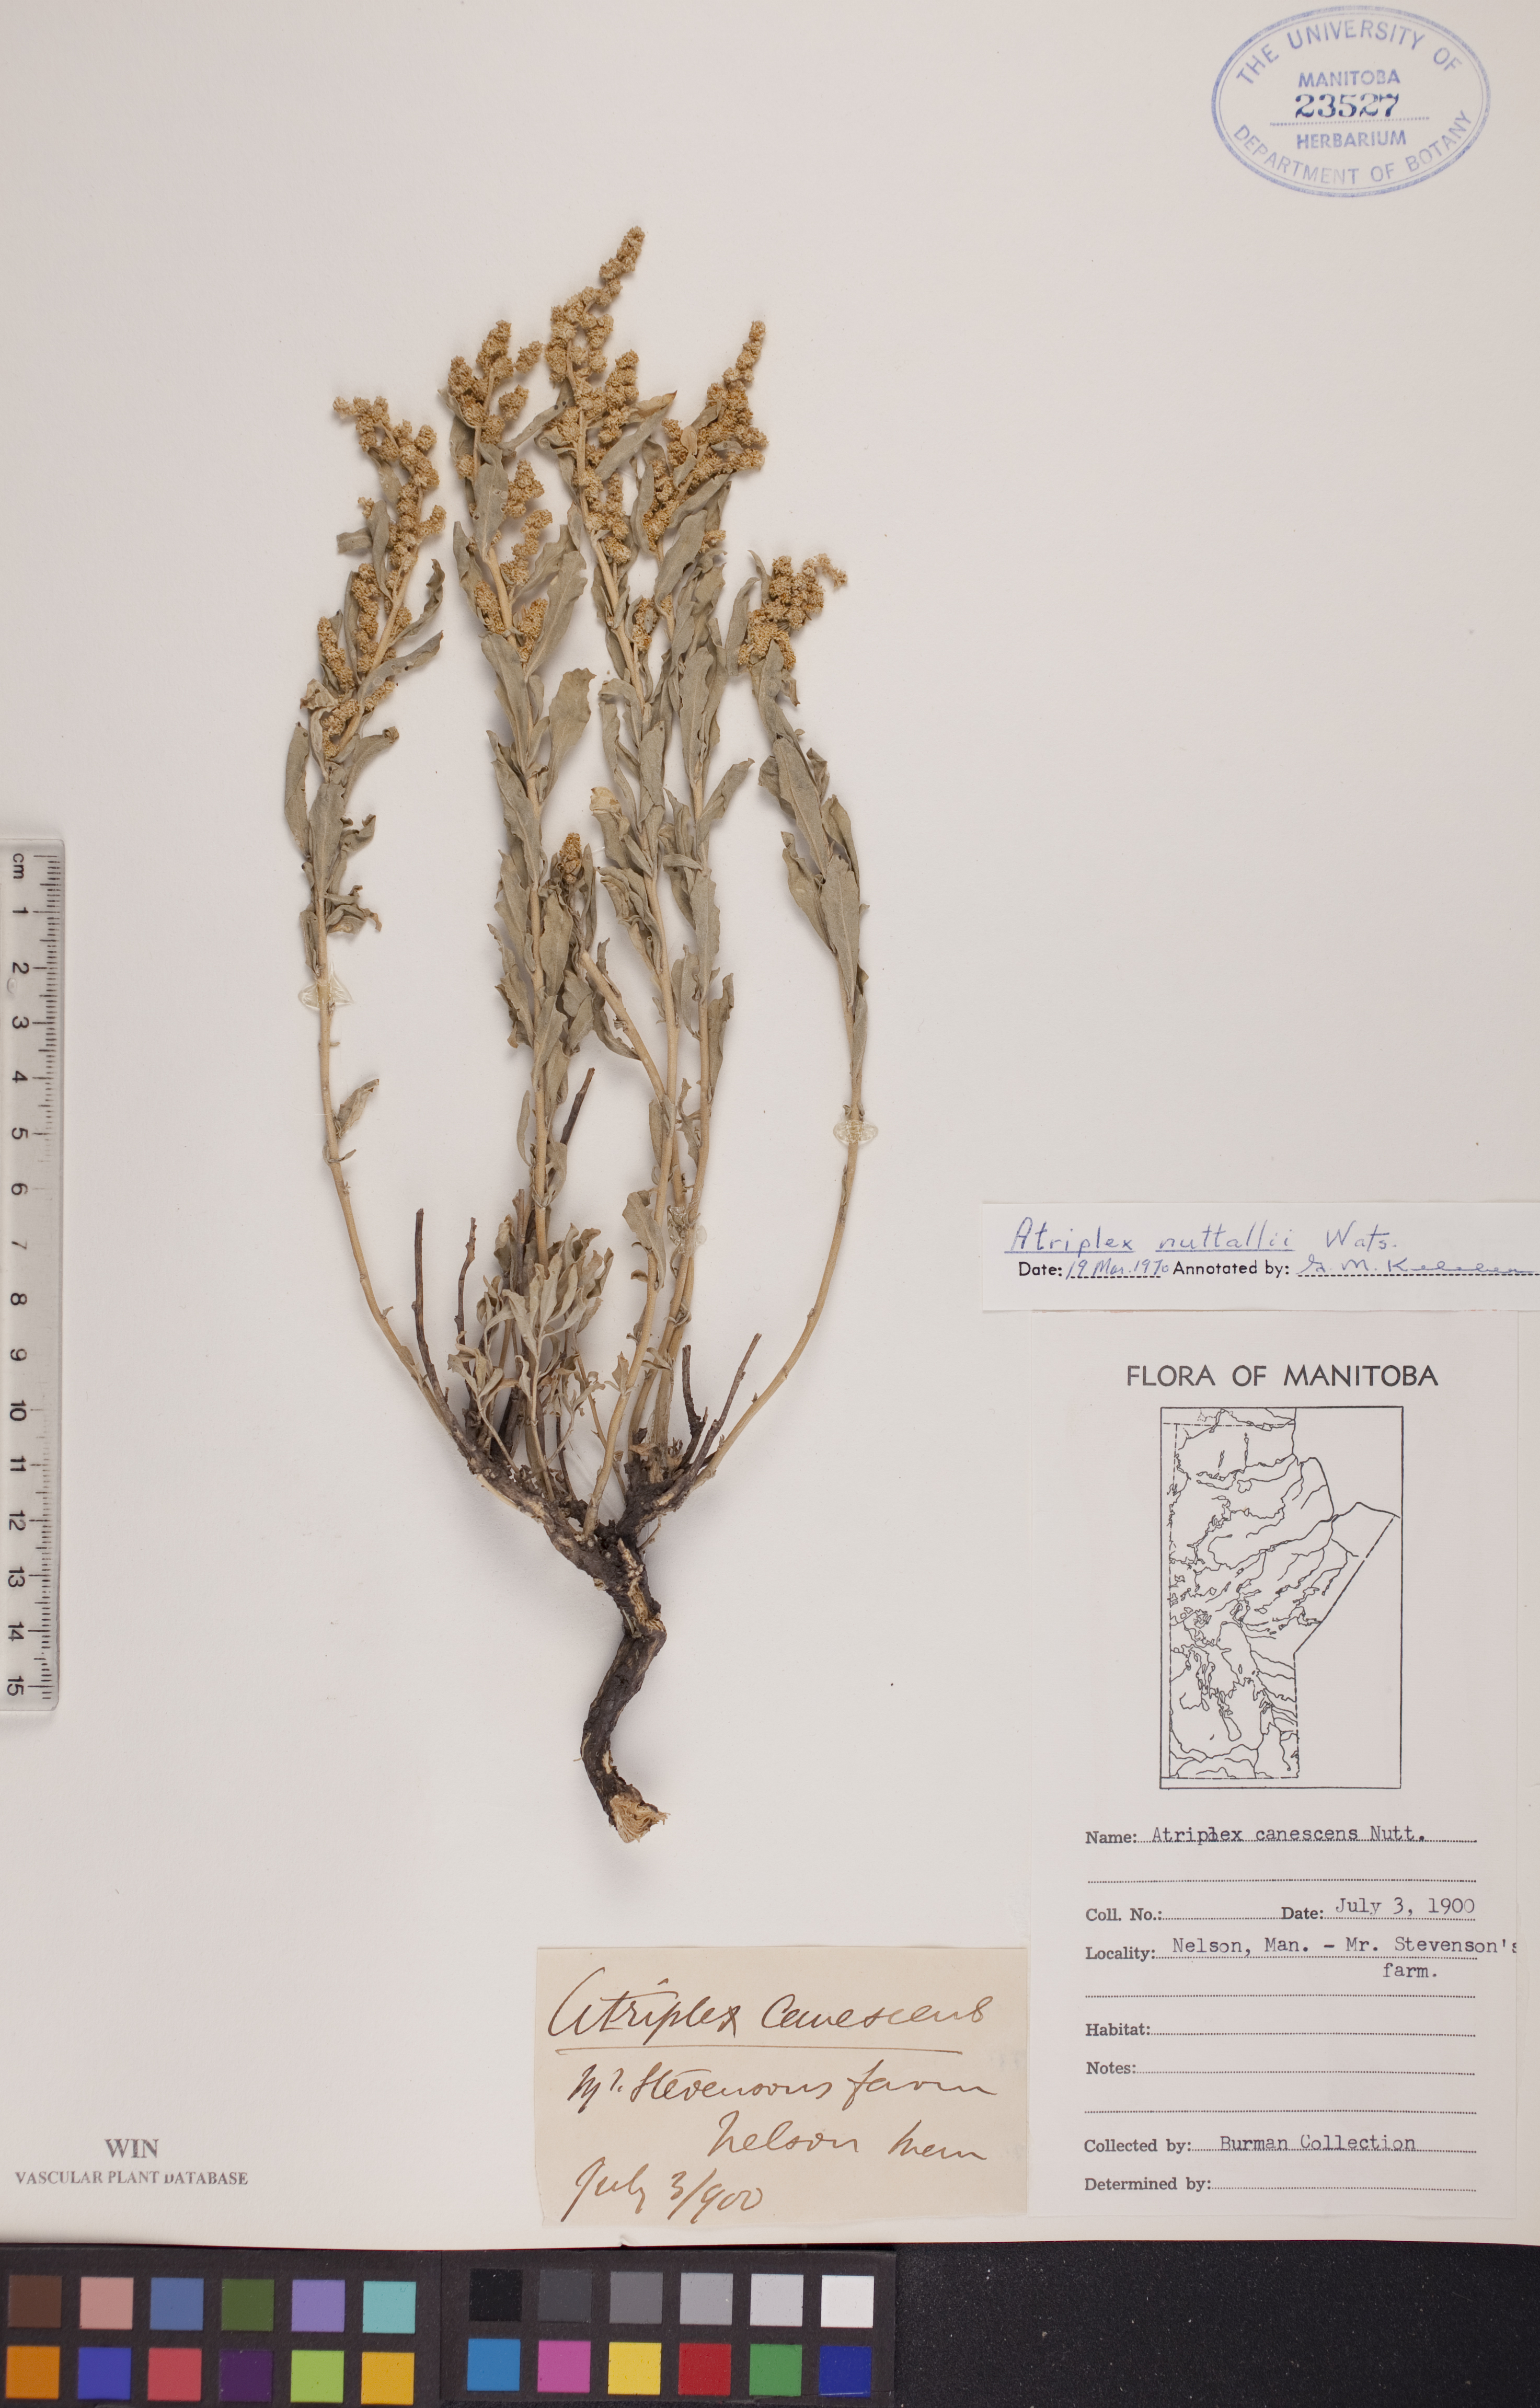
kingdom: Plantae
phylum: Tracheophyta
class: Magnoliopsida
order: Caryophyllales
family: Amaranthaceae
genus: Atriplex
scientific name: Atriplex canescens
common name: Four-wing saltbush
